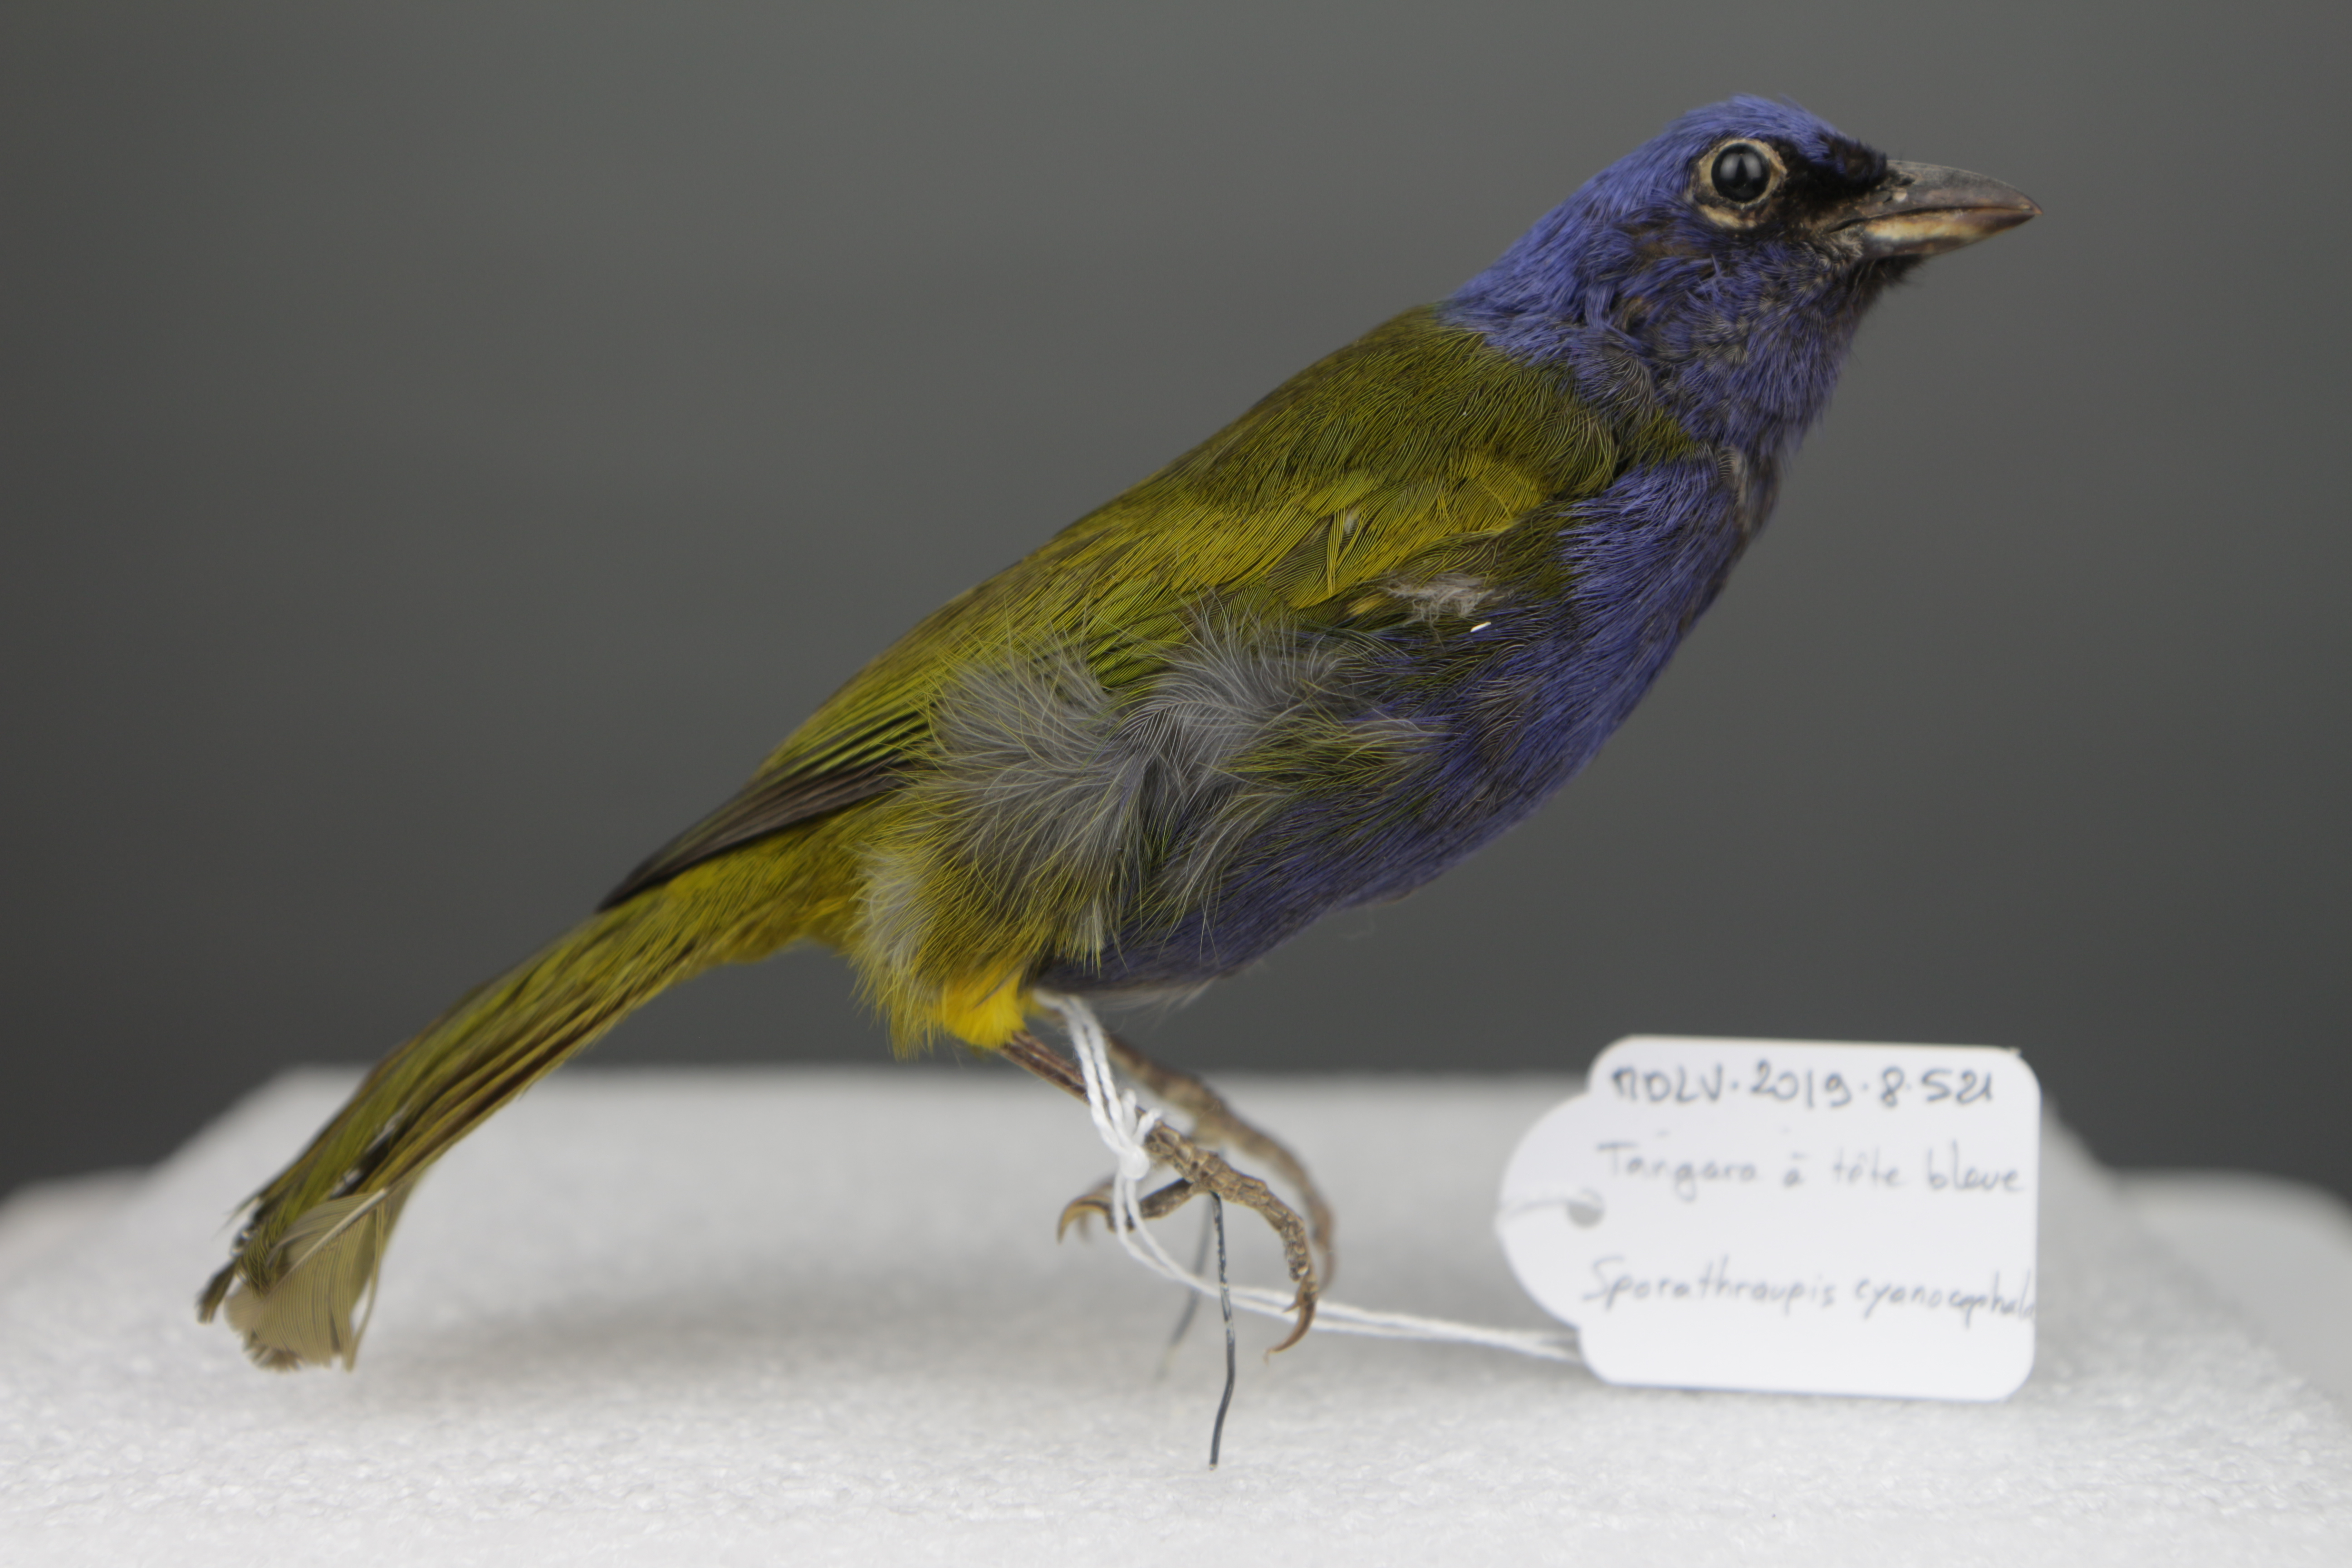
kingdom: Animalia
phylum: Chordata
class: Aves
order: Passeriformes
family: Thraupidae
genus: Sporathraupis
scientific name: Sporathraupis cyanocephala
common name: Blue-capped tanager
